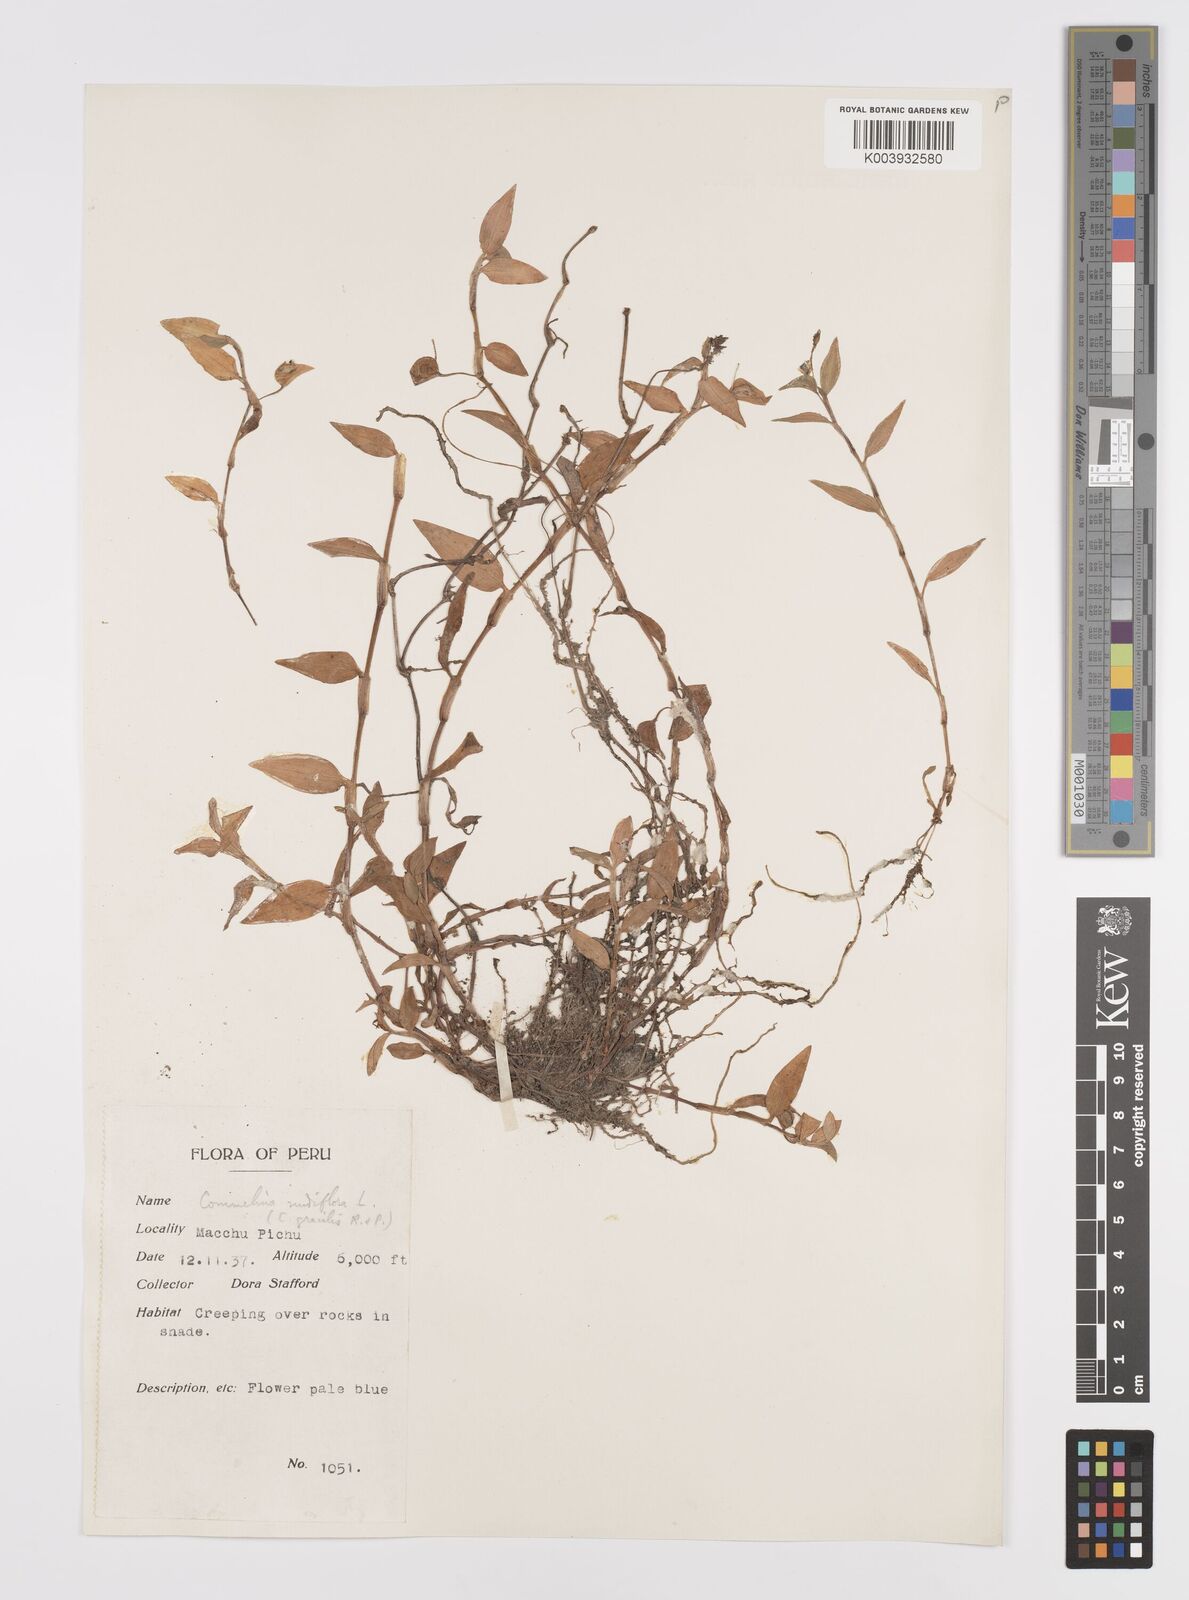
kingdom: Plantae
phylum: Tracheophyta
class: Liliopsida
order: Commelinales
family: Commelinaceae
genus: Commelina
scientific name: Commelina diffusa
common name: Climbing dayflower
